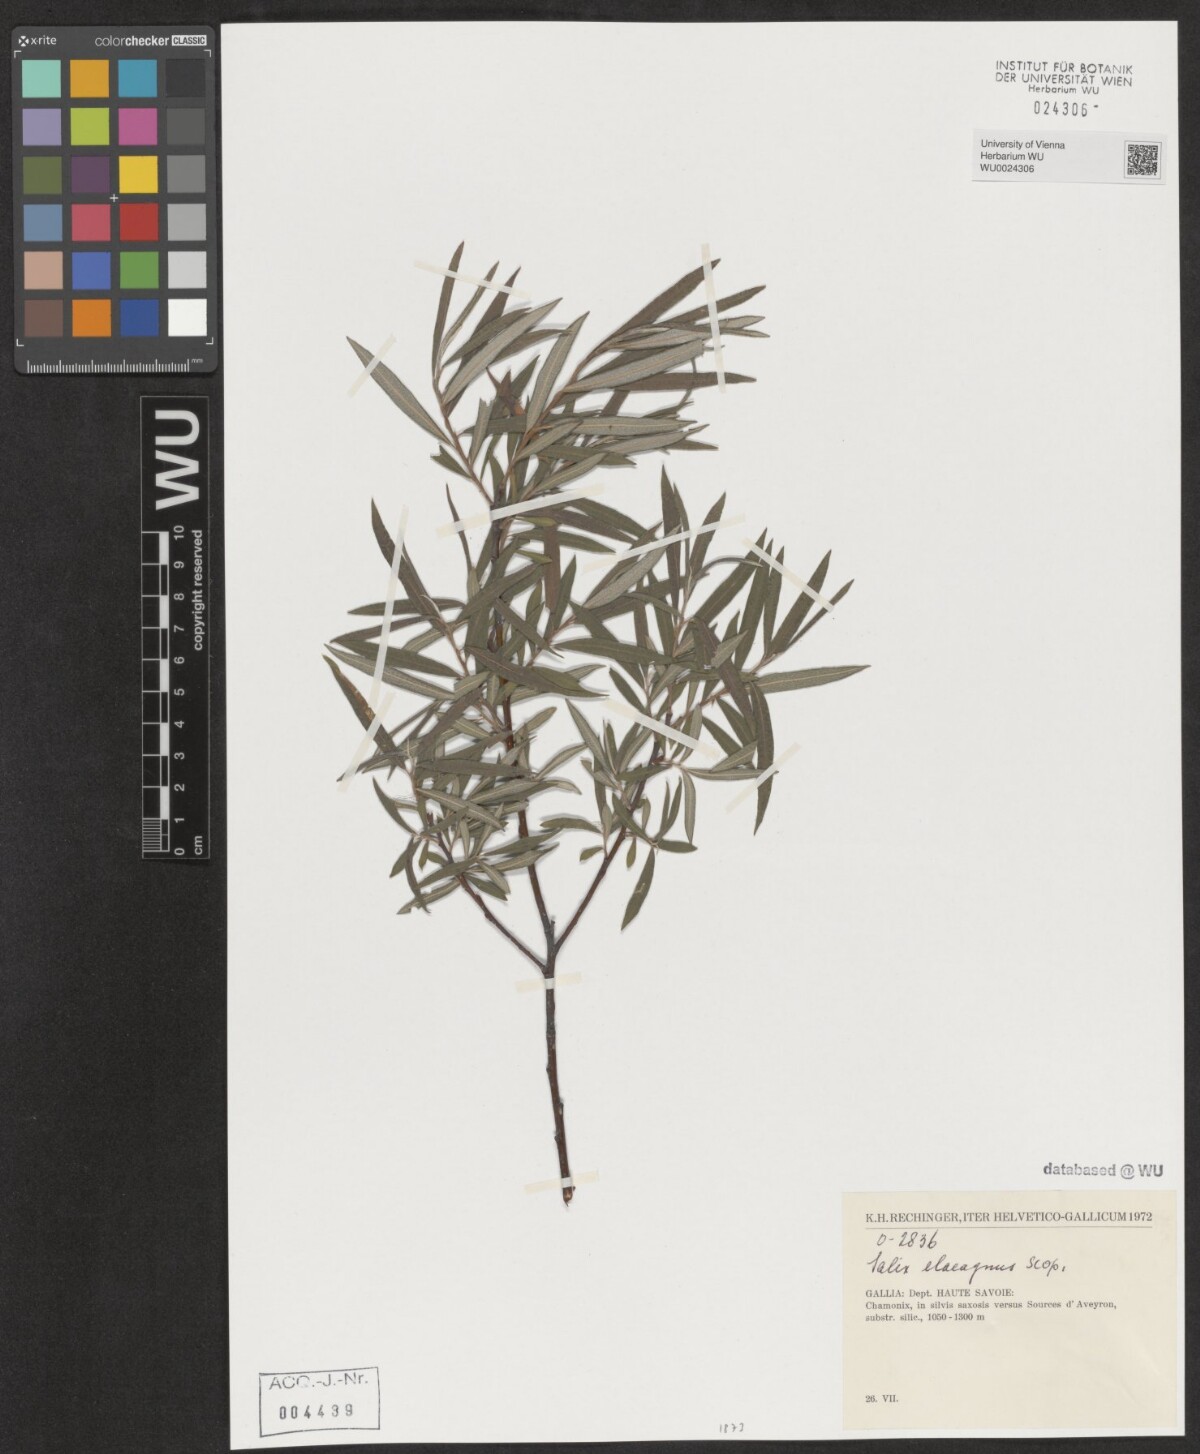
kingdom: Plantae
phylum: Tracheophyta
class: Magnoliopsida
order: Malpighiales
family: Salicaceae
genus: Salix
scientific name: Salix eleagnos
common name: Elaeagnus willow
